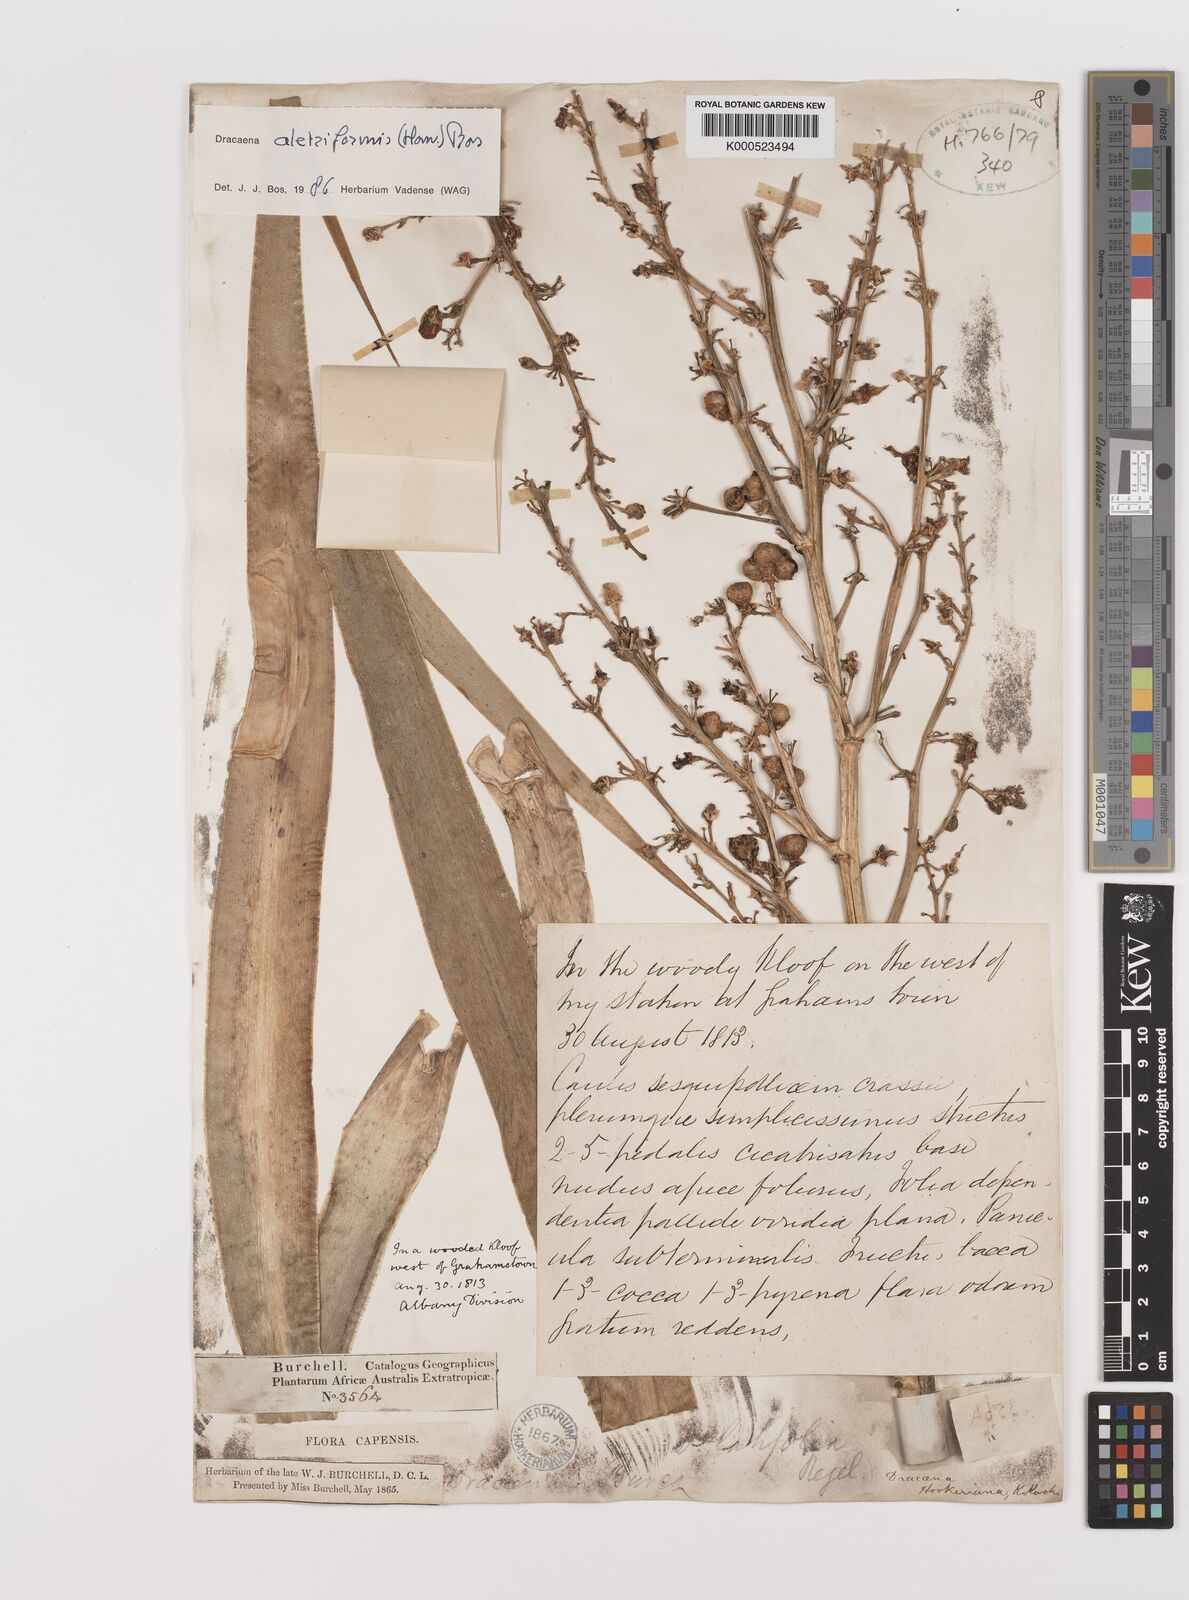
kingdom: Plantae
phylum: Tracheophyta
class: Liliopsida
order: Asparagales
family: Asparagaceae
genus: Dracaena
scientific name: Dracaena aletriformis
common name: Large-leaved dragon tree
